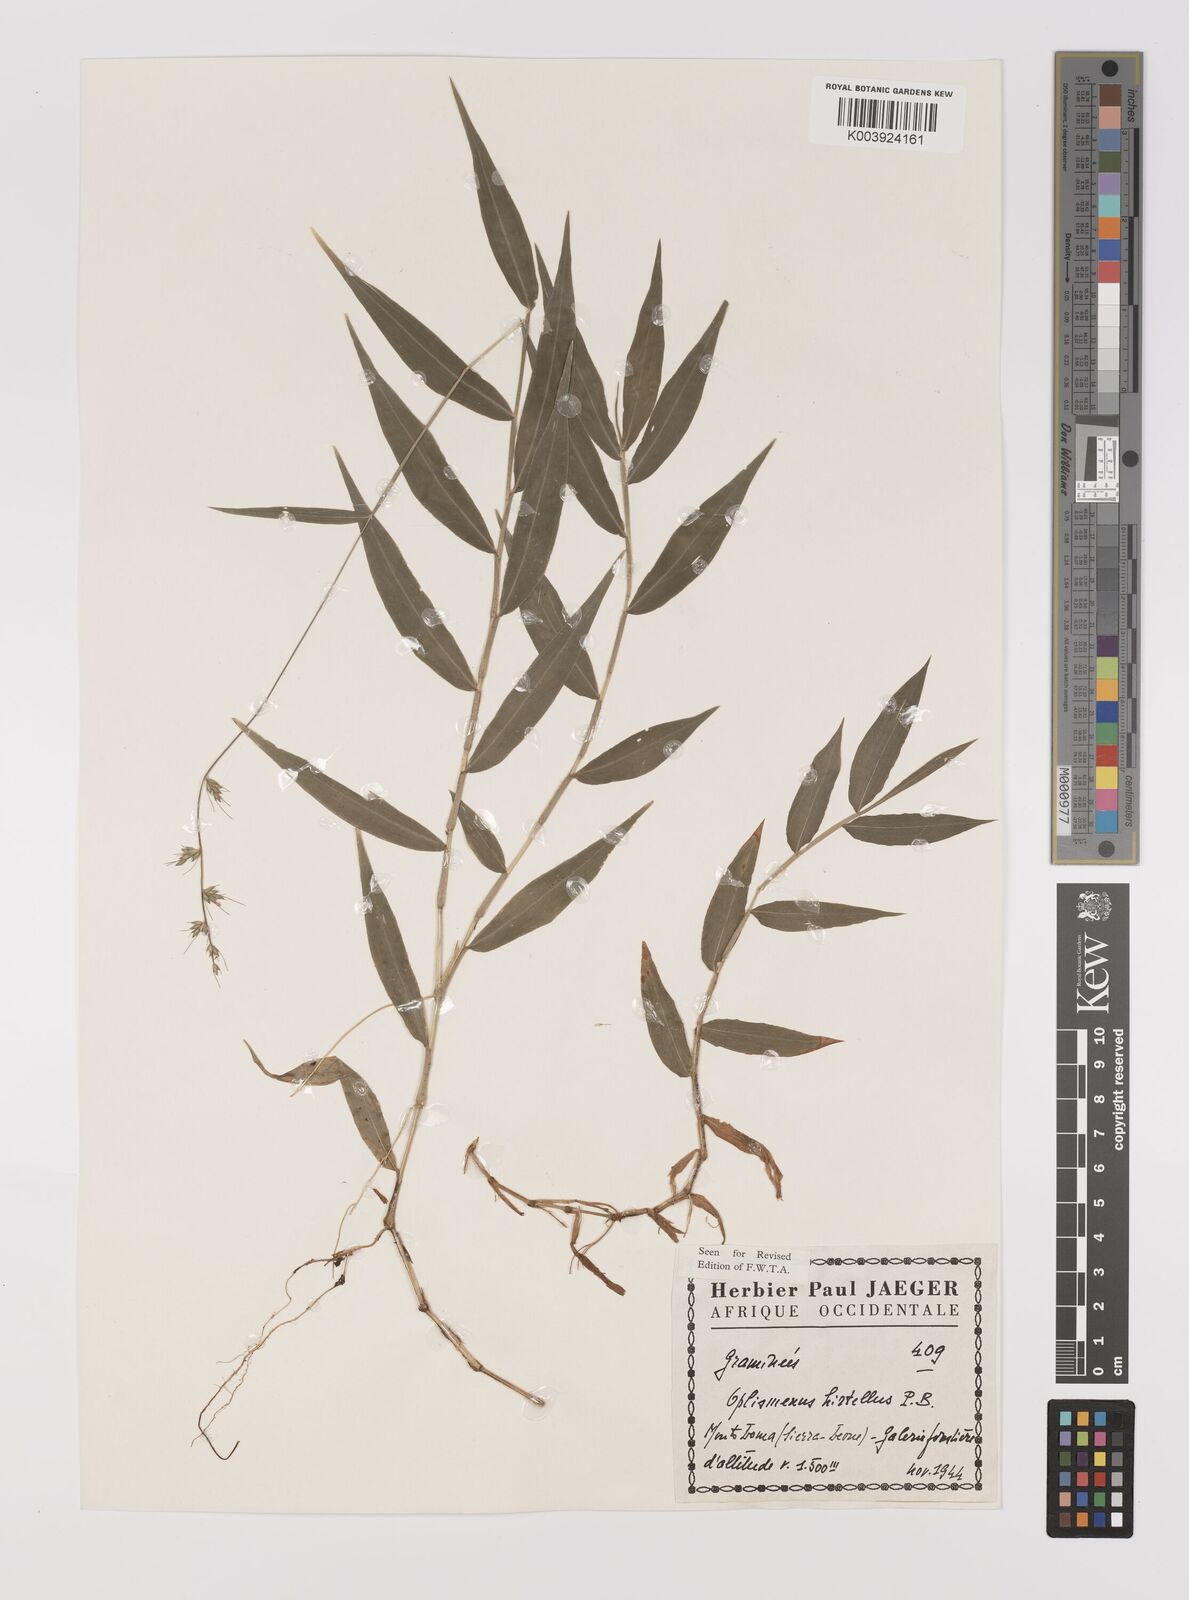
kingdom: Plantae
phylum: Tracheophyta
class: Liliopsida
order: Poales
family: Poaceae
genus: Oplismenus
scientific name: Oplismenus hirtellus
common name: Basketgrass
